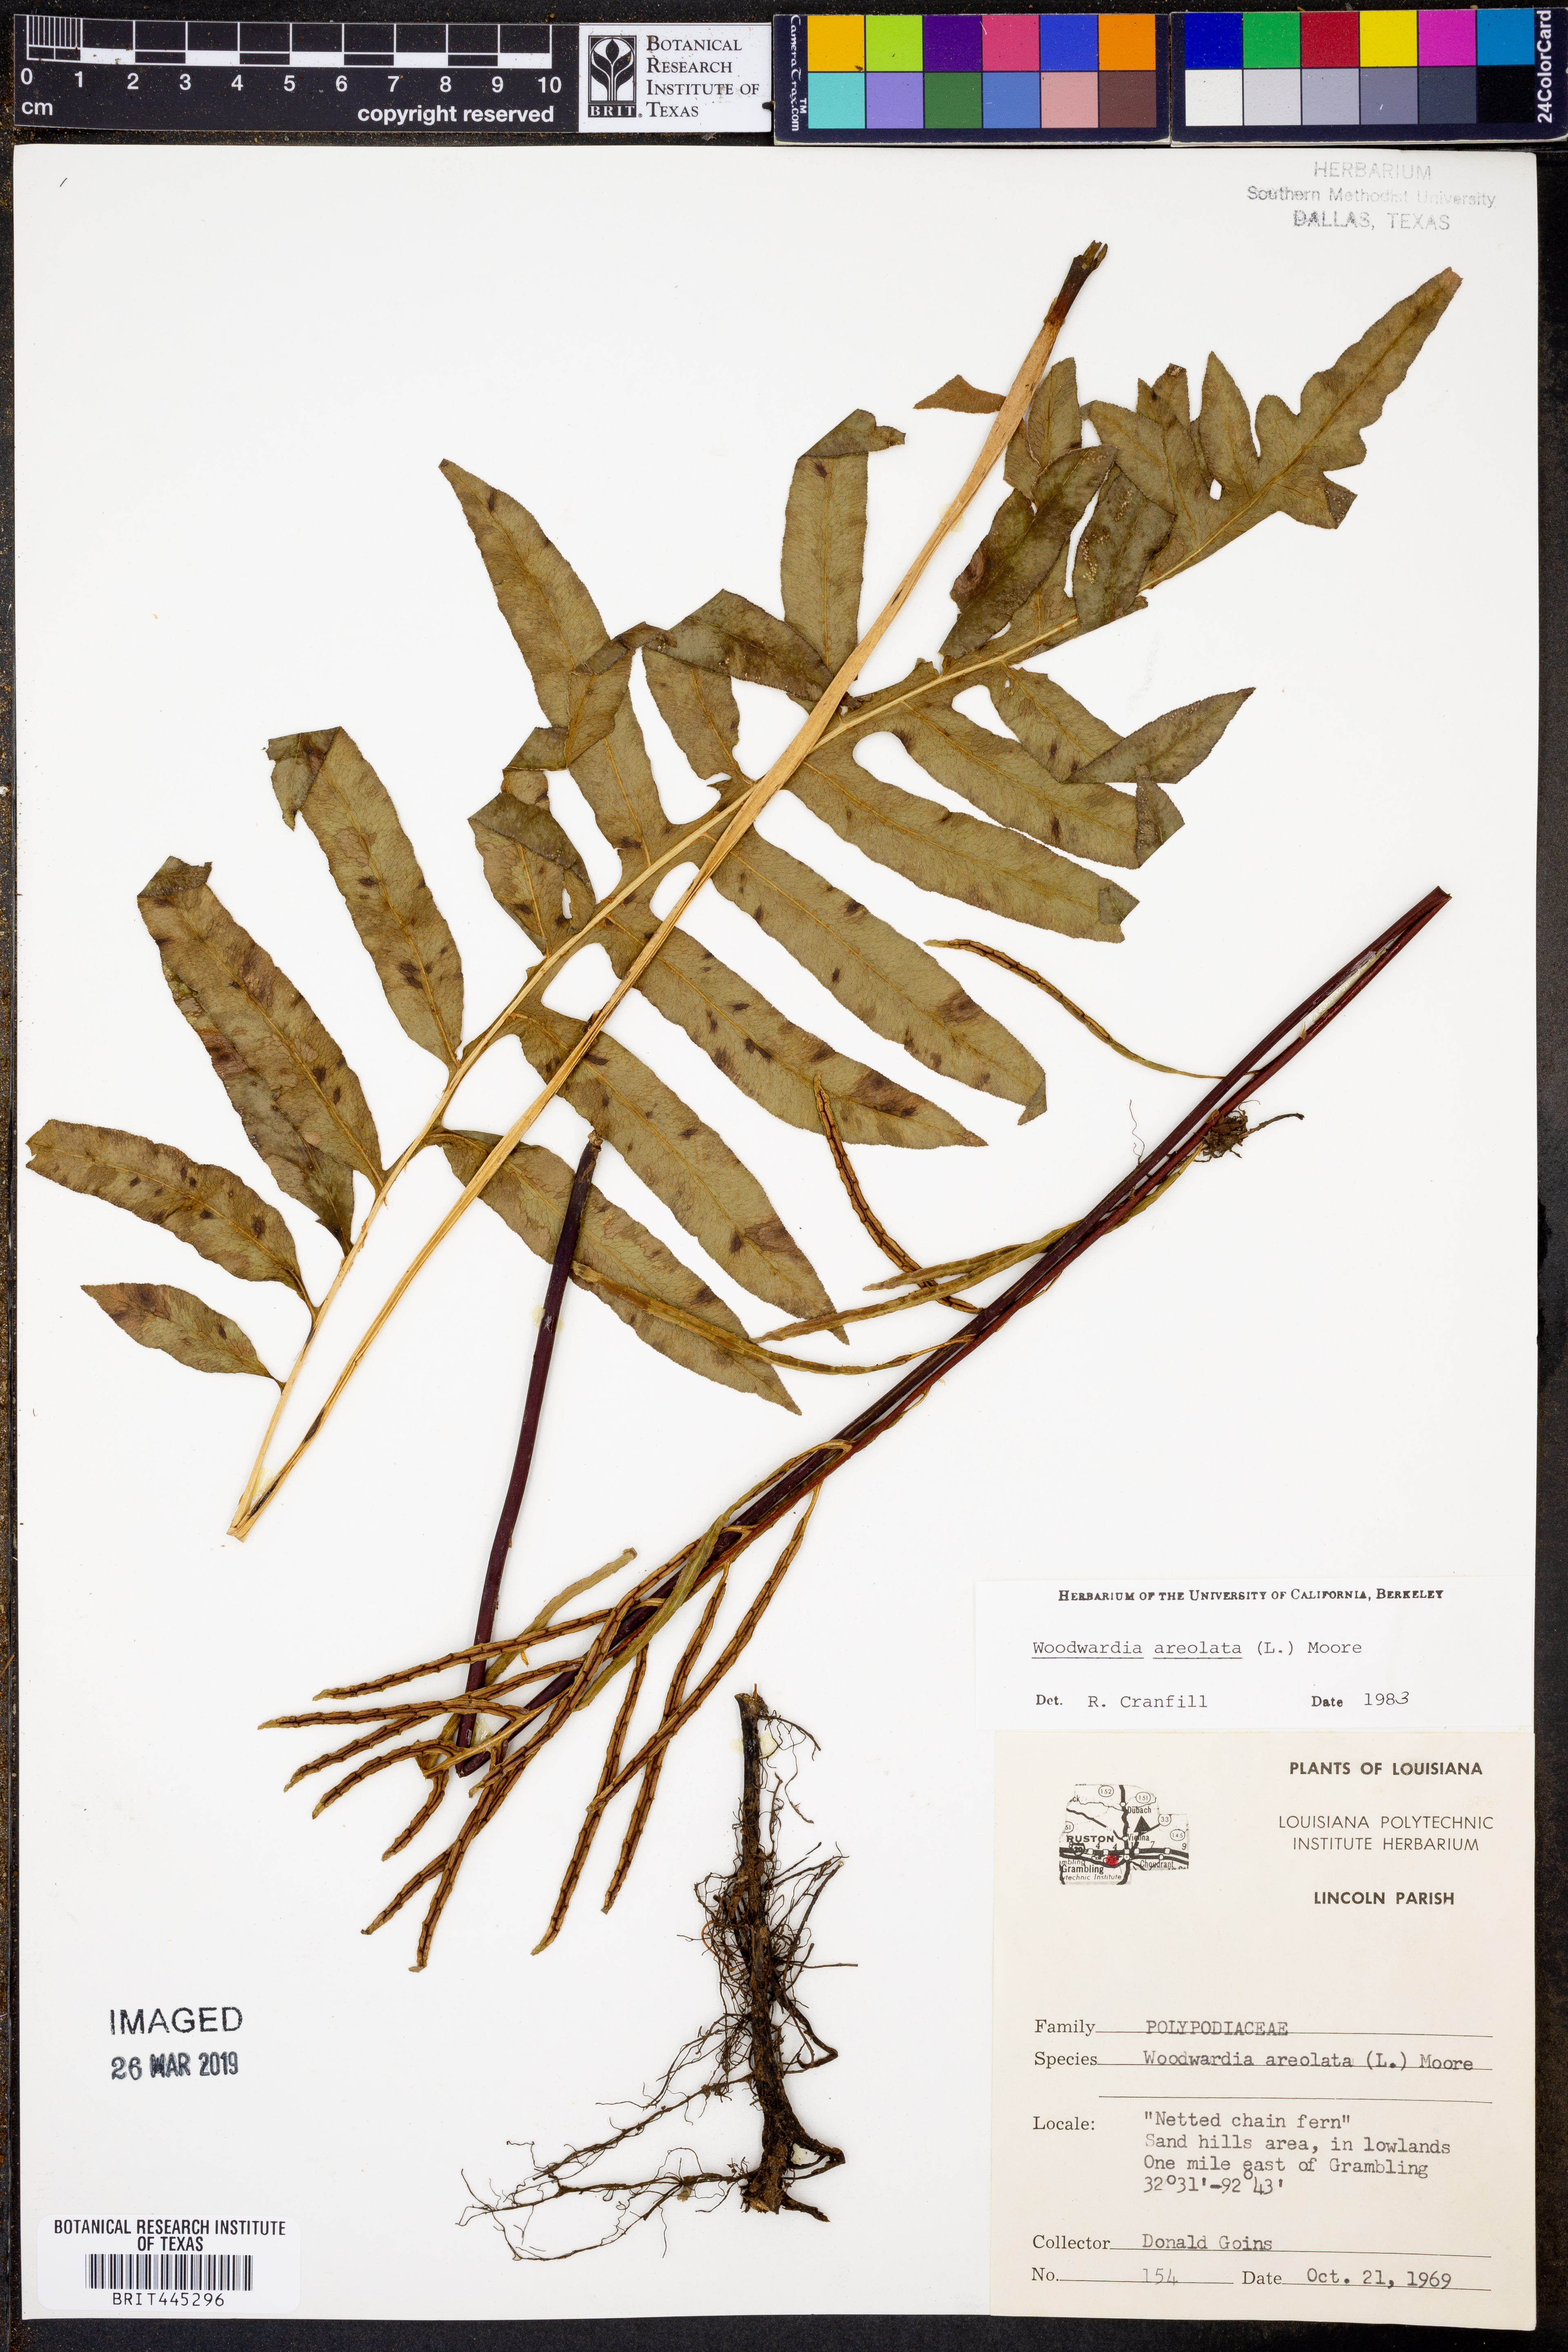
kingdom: Plantae
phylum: Tracheophyta
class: Polypodiopsida
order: Polypodiales
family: Blechnaceae
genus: Lorinseria
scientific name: Lorinseria areolata
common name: Dwarf chain fern
